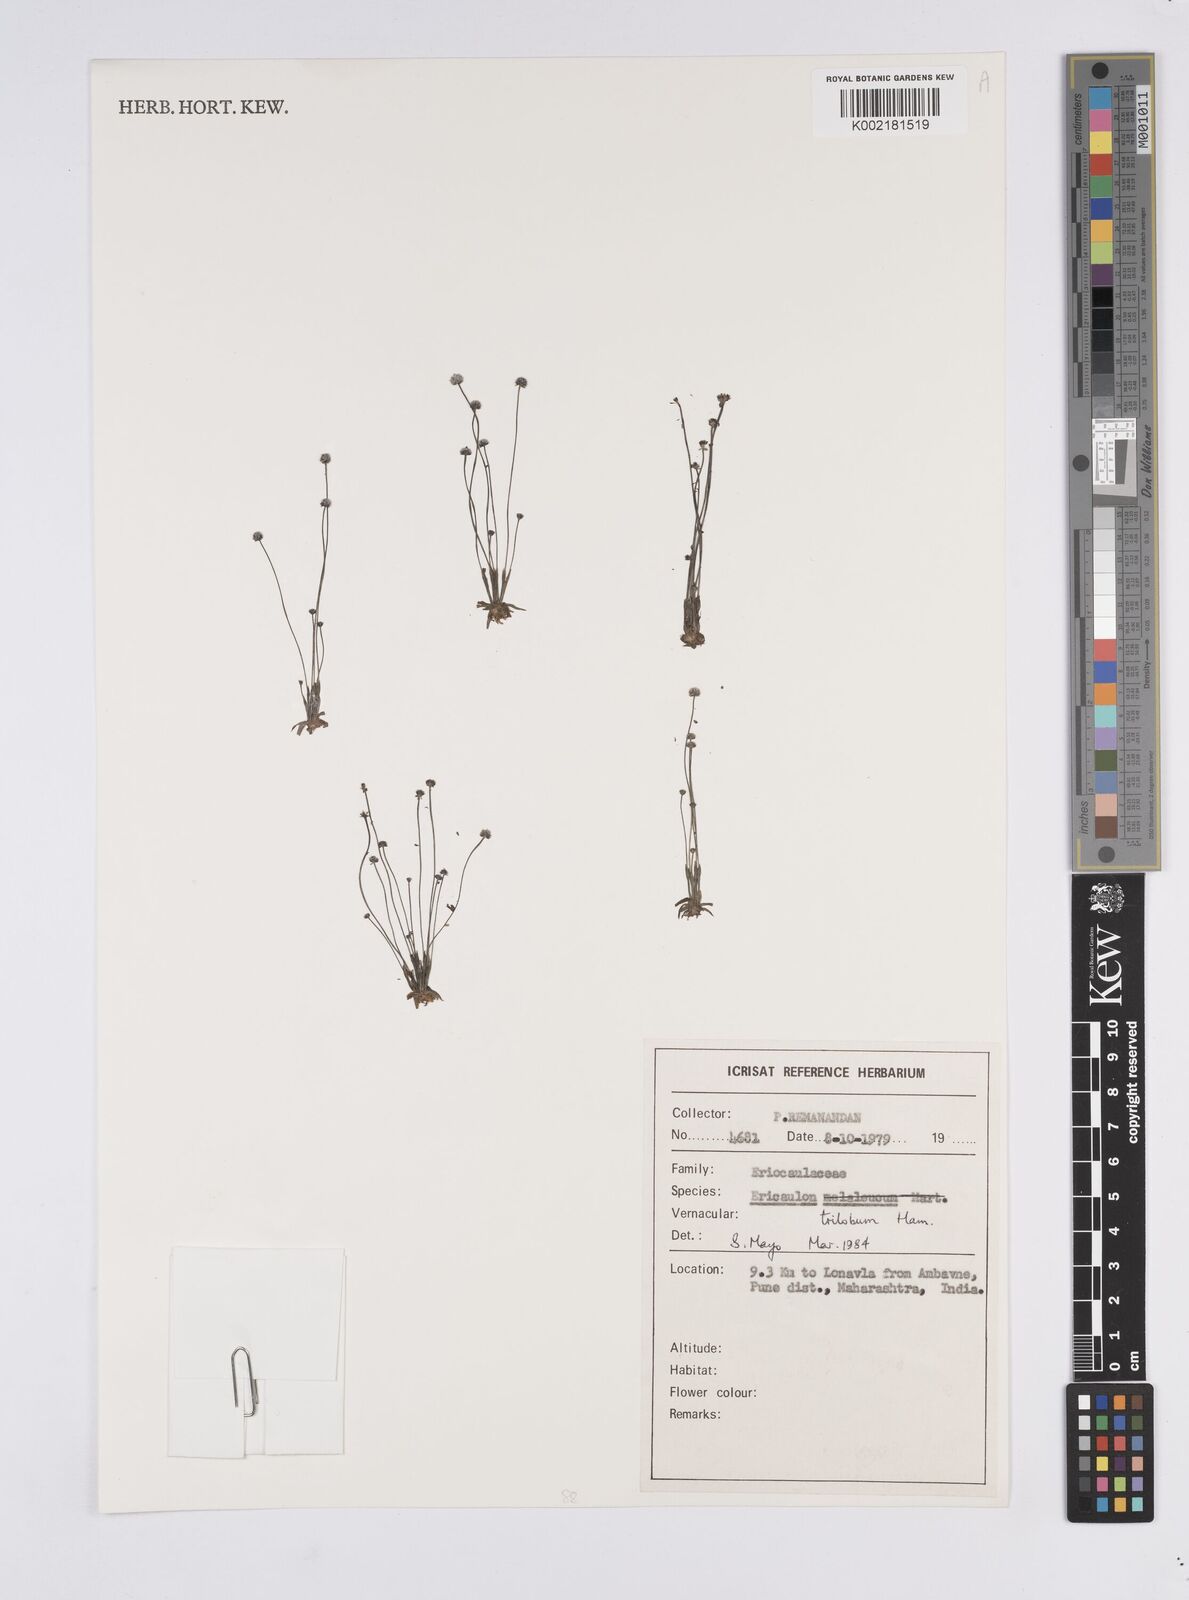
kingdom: Plantae
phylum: Tracheophyta
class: Liliopsida
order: Poales
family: Eriocaulaceae
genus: Eriocaulon
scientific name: Eriocaulon sollyanum
